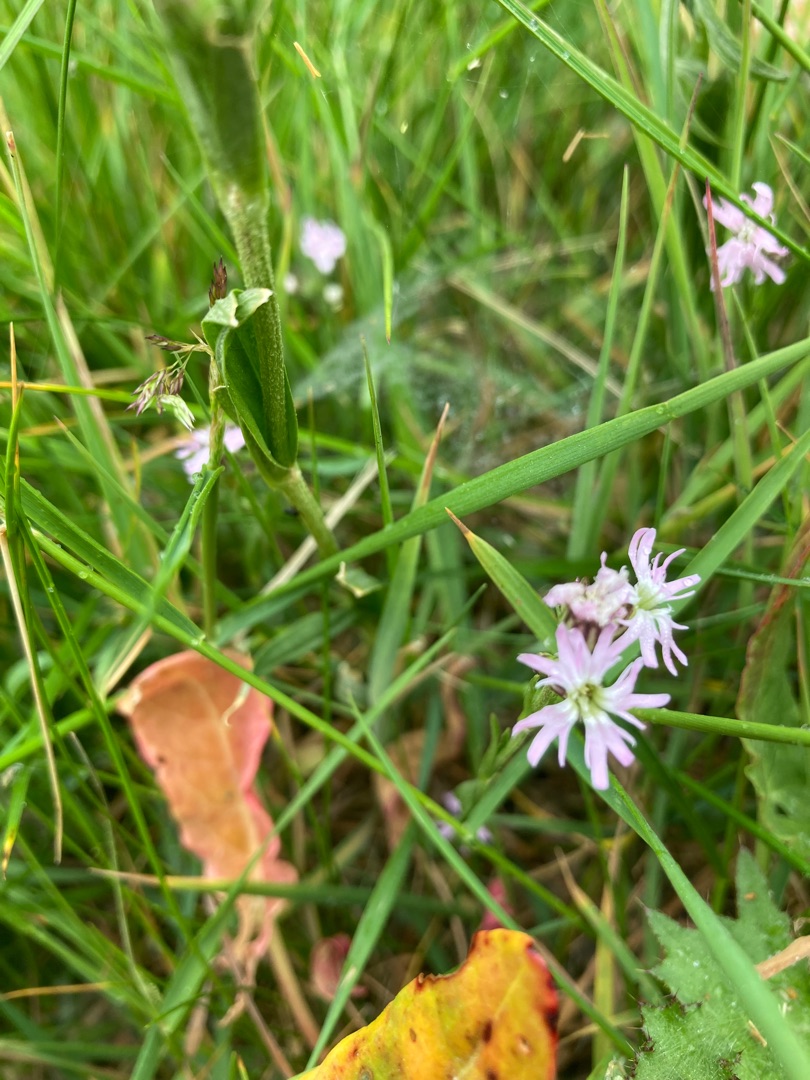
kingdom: Plantae
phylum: Tracheophyta
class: Magnoliopsida
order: Caryophyllales
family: Caryophyllaceae
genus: Silene
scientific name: Silene flos-cuculi
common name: Trævlekrone
